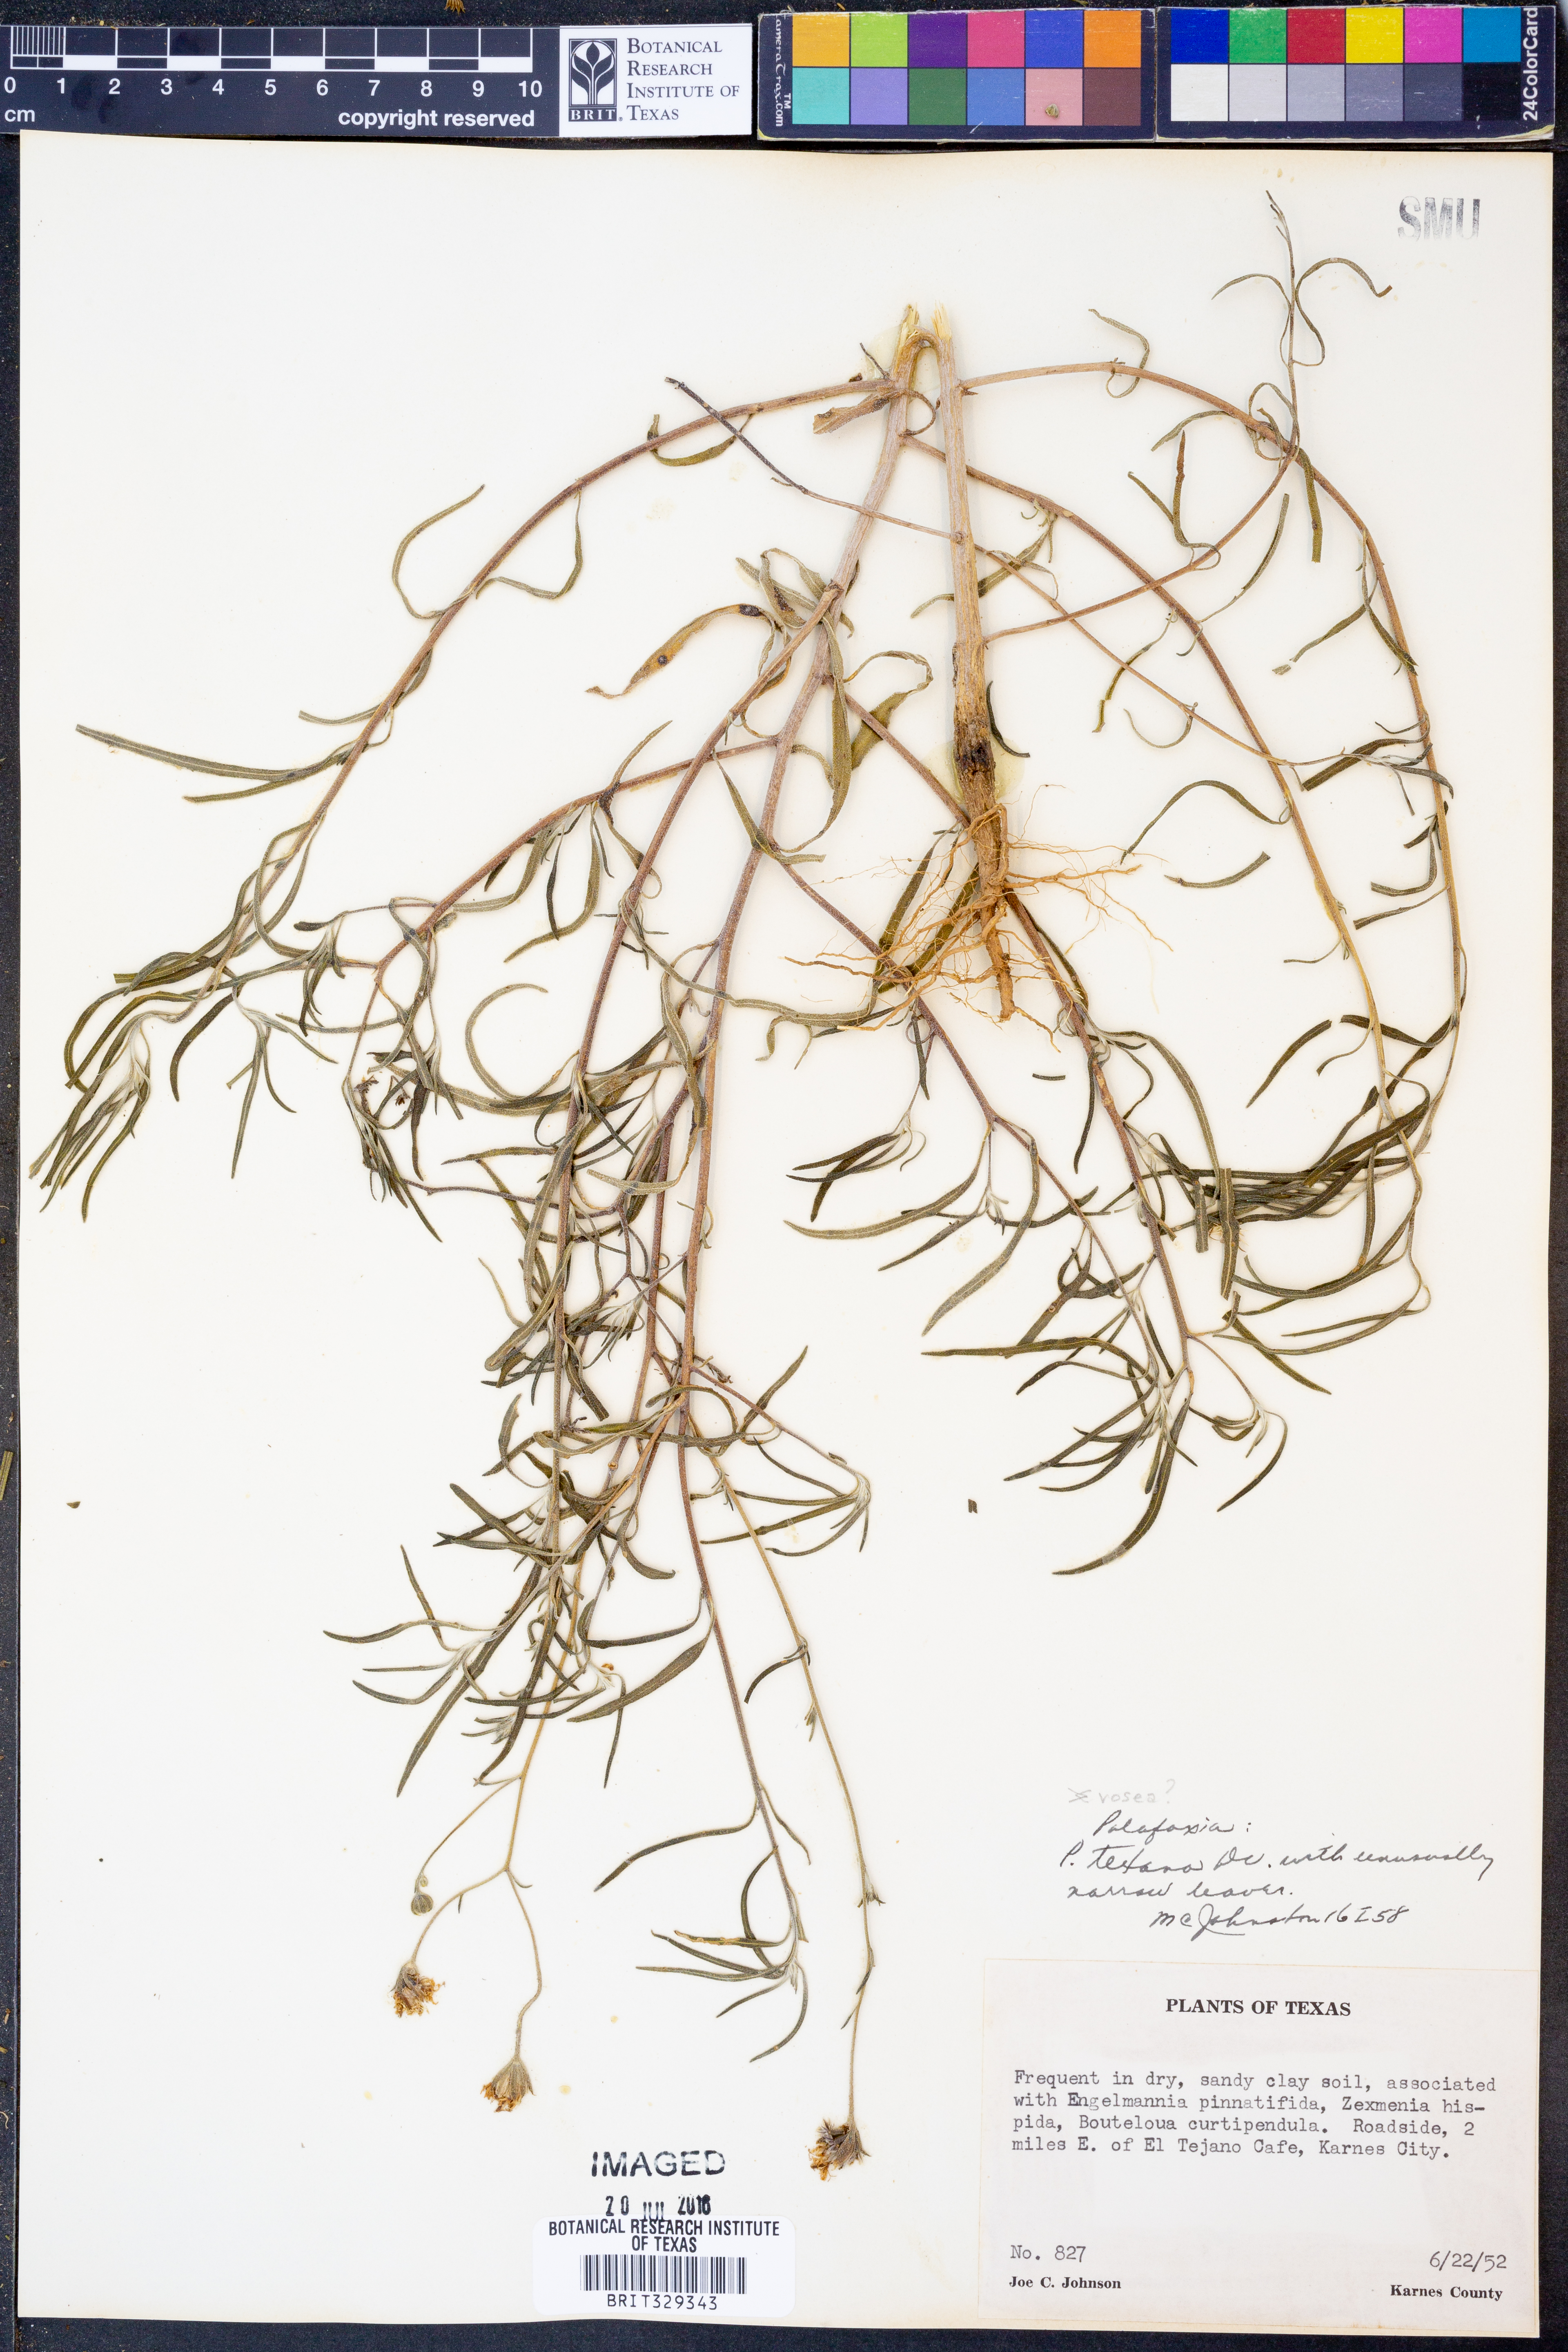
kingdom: Plantae
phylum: Tracheophyta
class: Magnoliopsida
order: Asterales
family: Asteraceae
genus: Palafoxia
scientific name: Palafoxia texana
